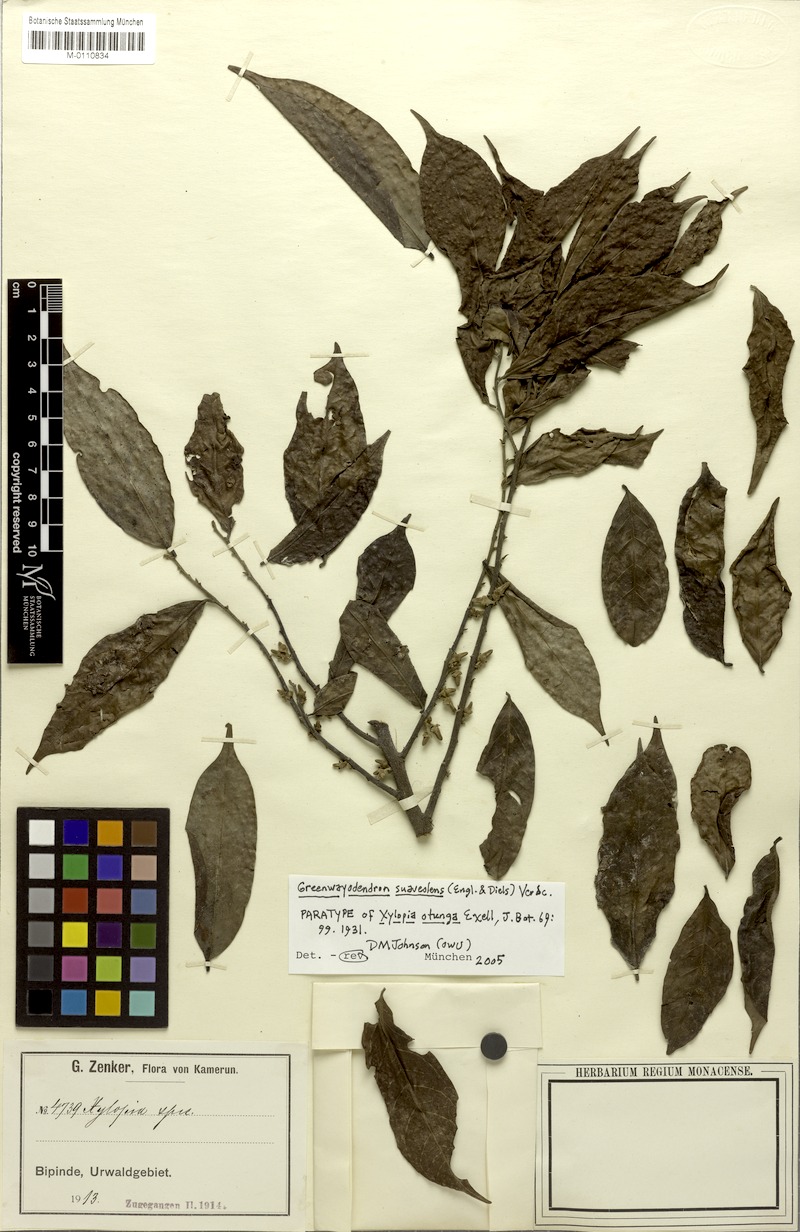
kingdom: Plantae
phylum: Tracheophyta
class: Magnoliopsida
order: Magnoliales
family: Annonaceae
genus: Greenwayodendron
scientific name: Greenwayodendron suaveolens
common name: Molinda
